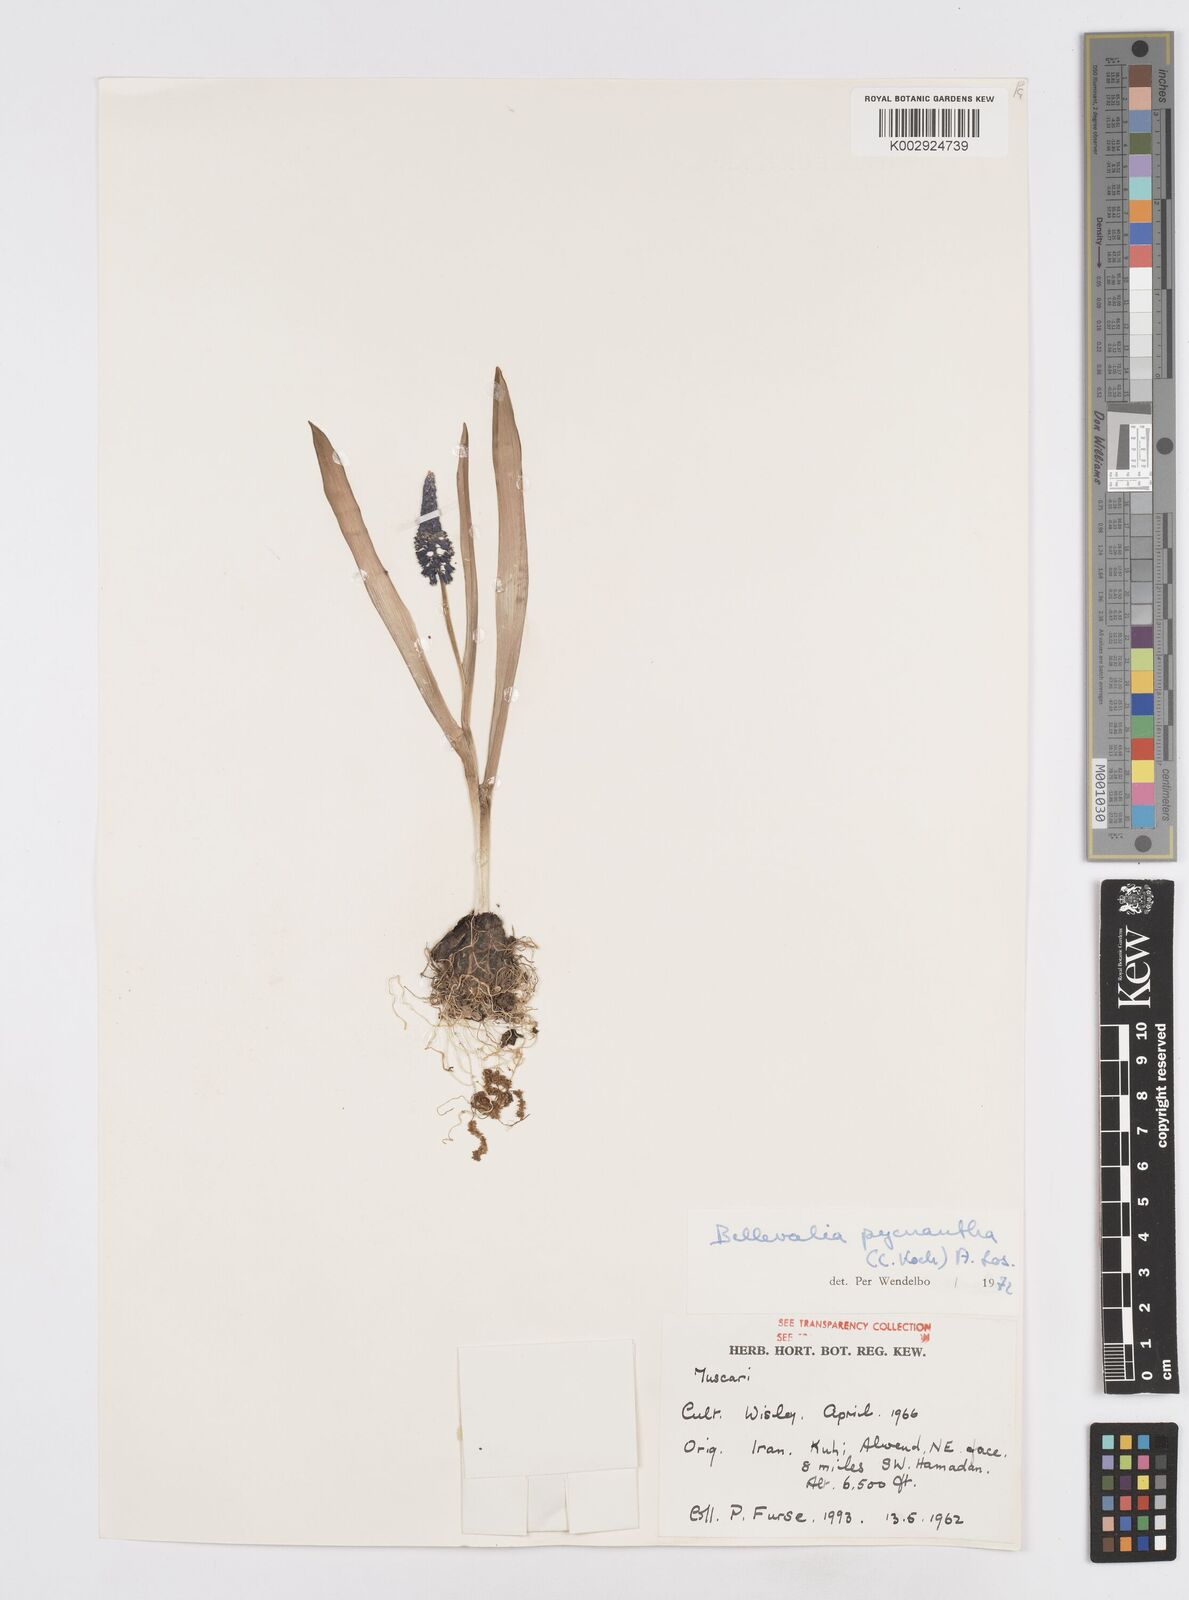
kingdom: Plantae
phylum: Tracheophyta
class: Liliopsida
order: Asparagales
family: Asparagaceae
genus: Bellevalia
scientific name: Bellevalia paradoxa
